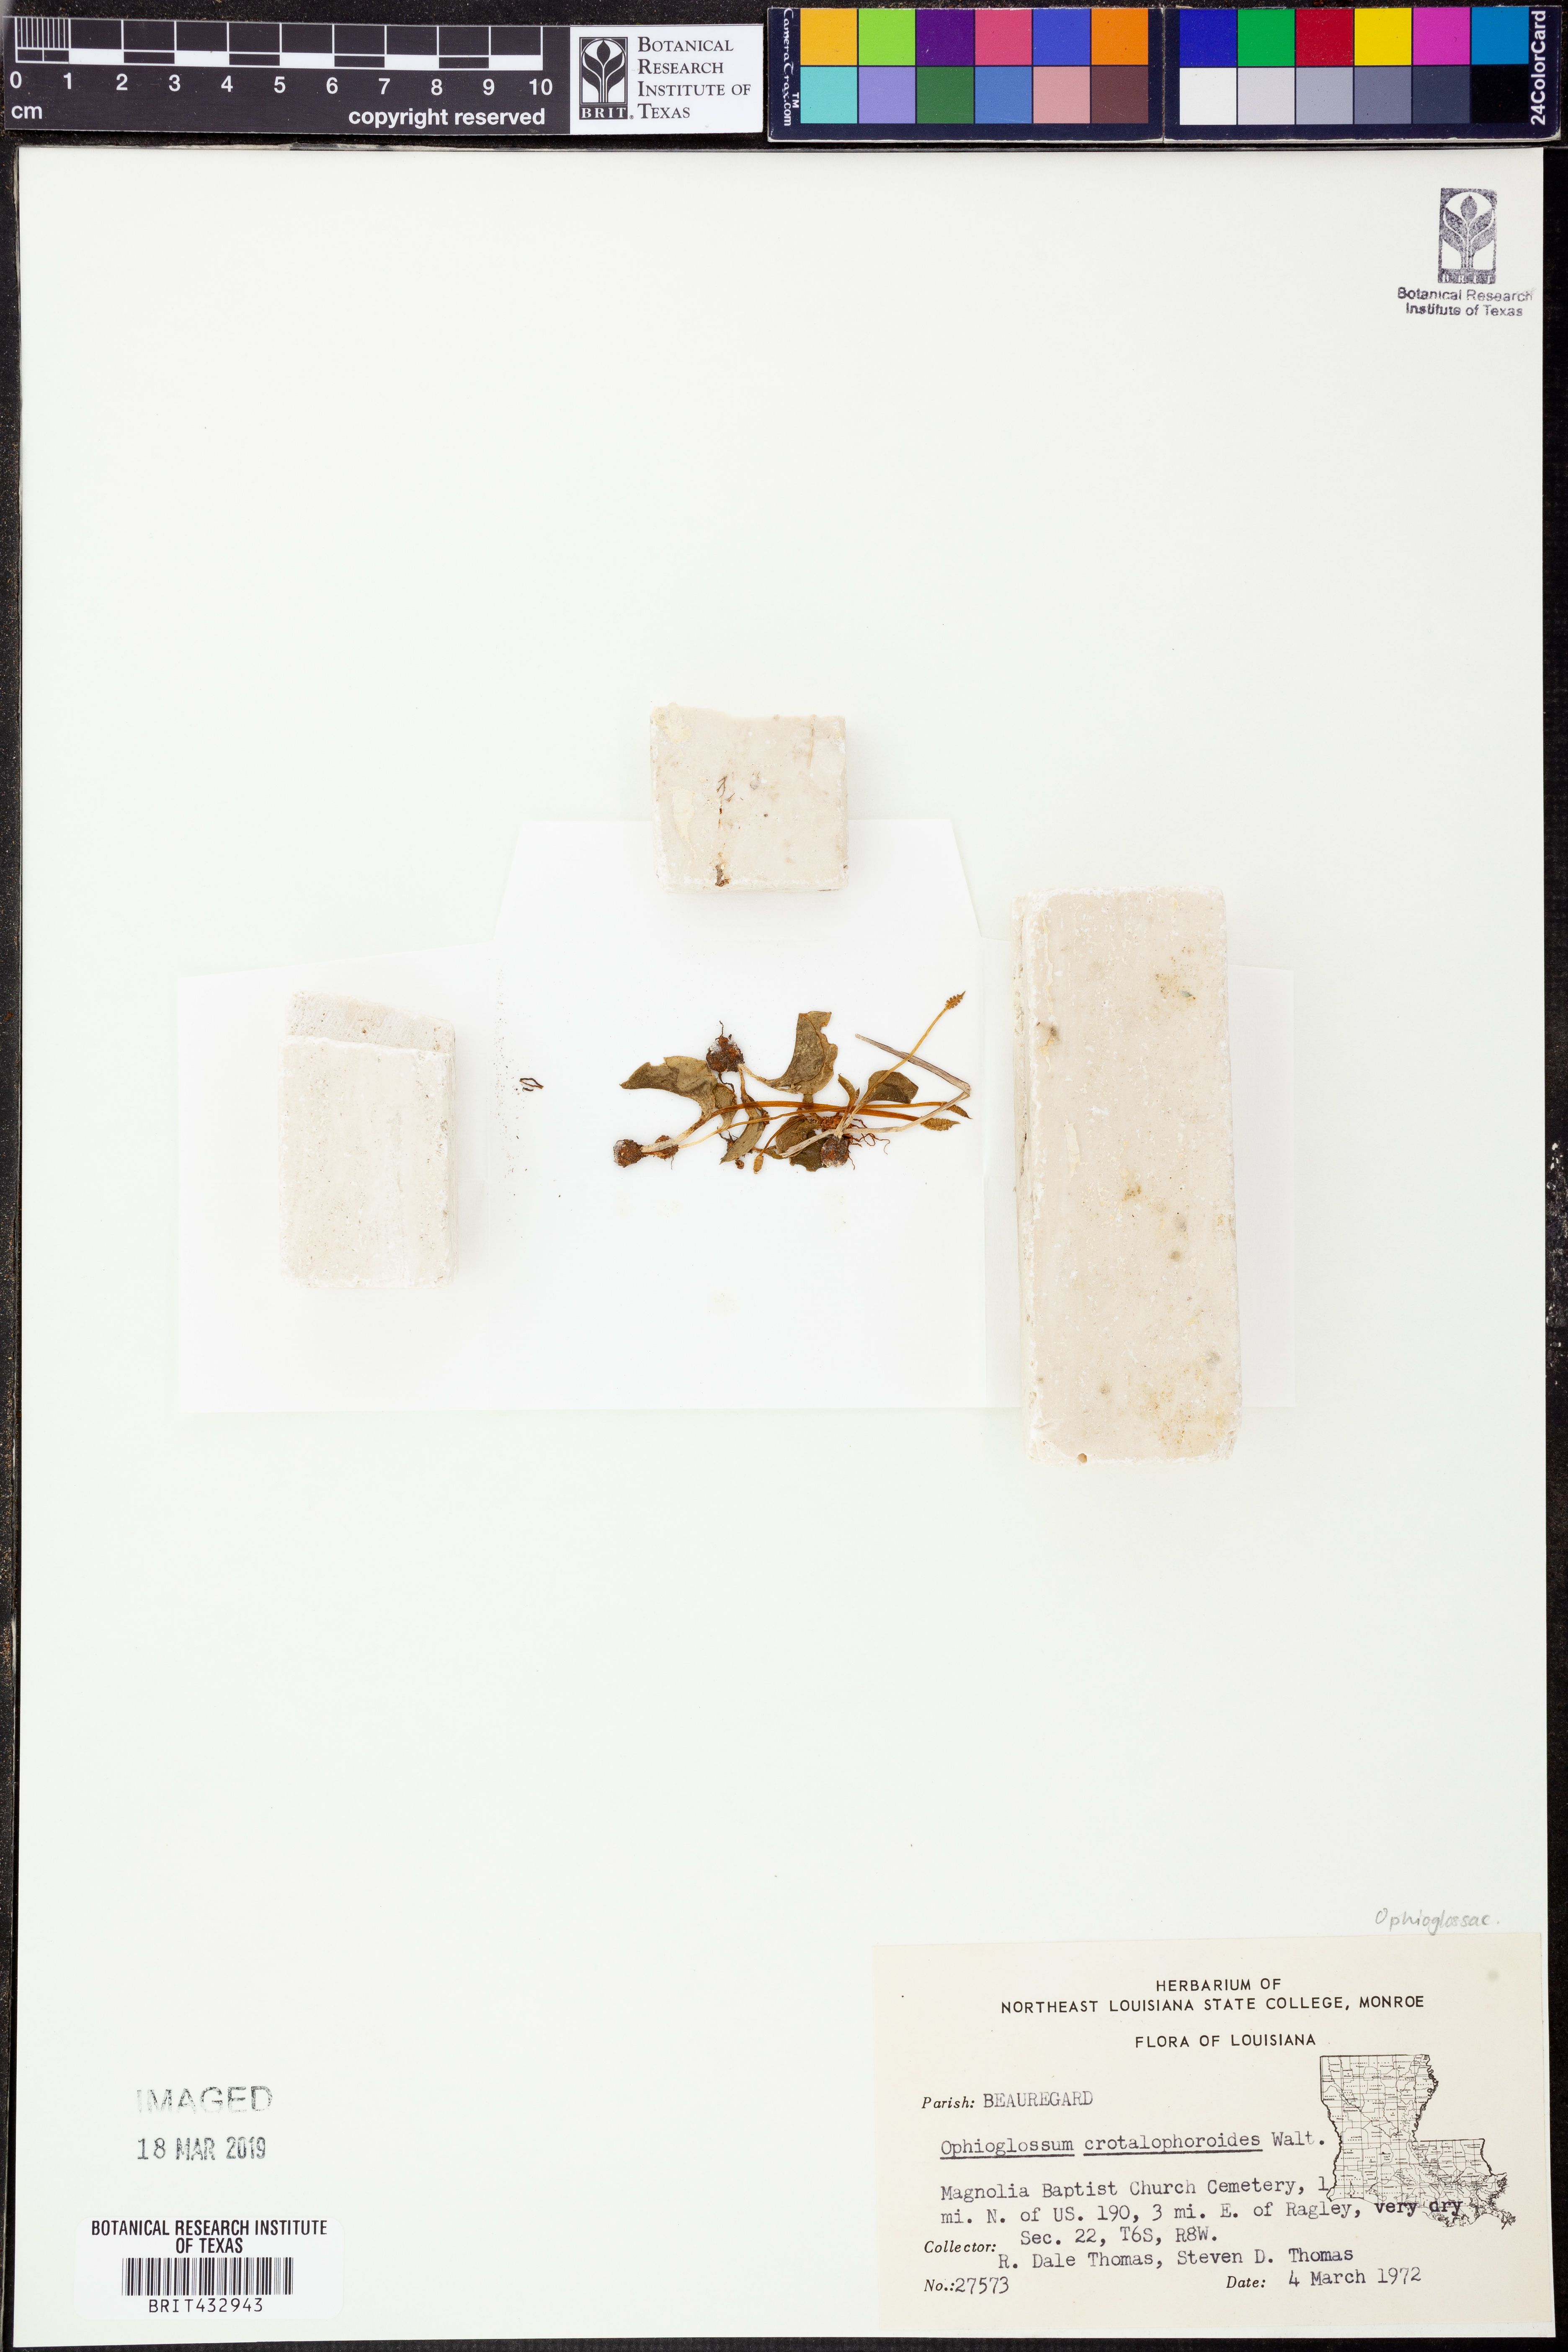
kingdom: Plantae
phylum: Tracheophyta
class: Polypodiopsida
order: Ophioglossales
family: Ophioglossaceae
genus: Ophioglossum
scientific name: Ophioglossum crotalophoroides
